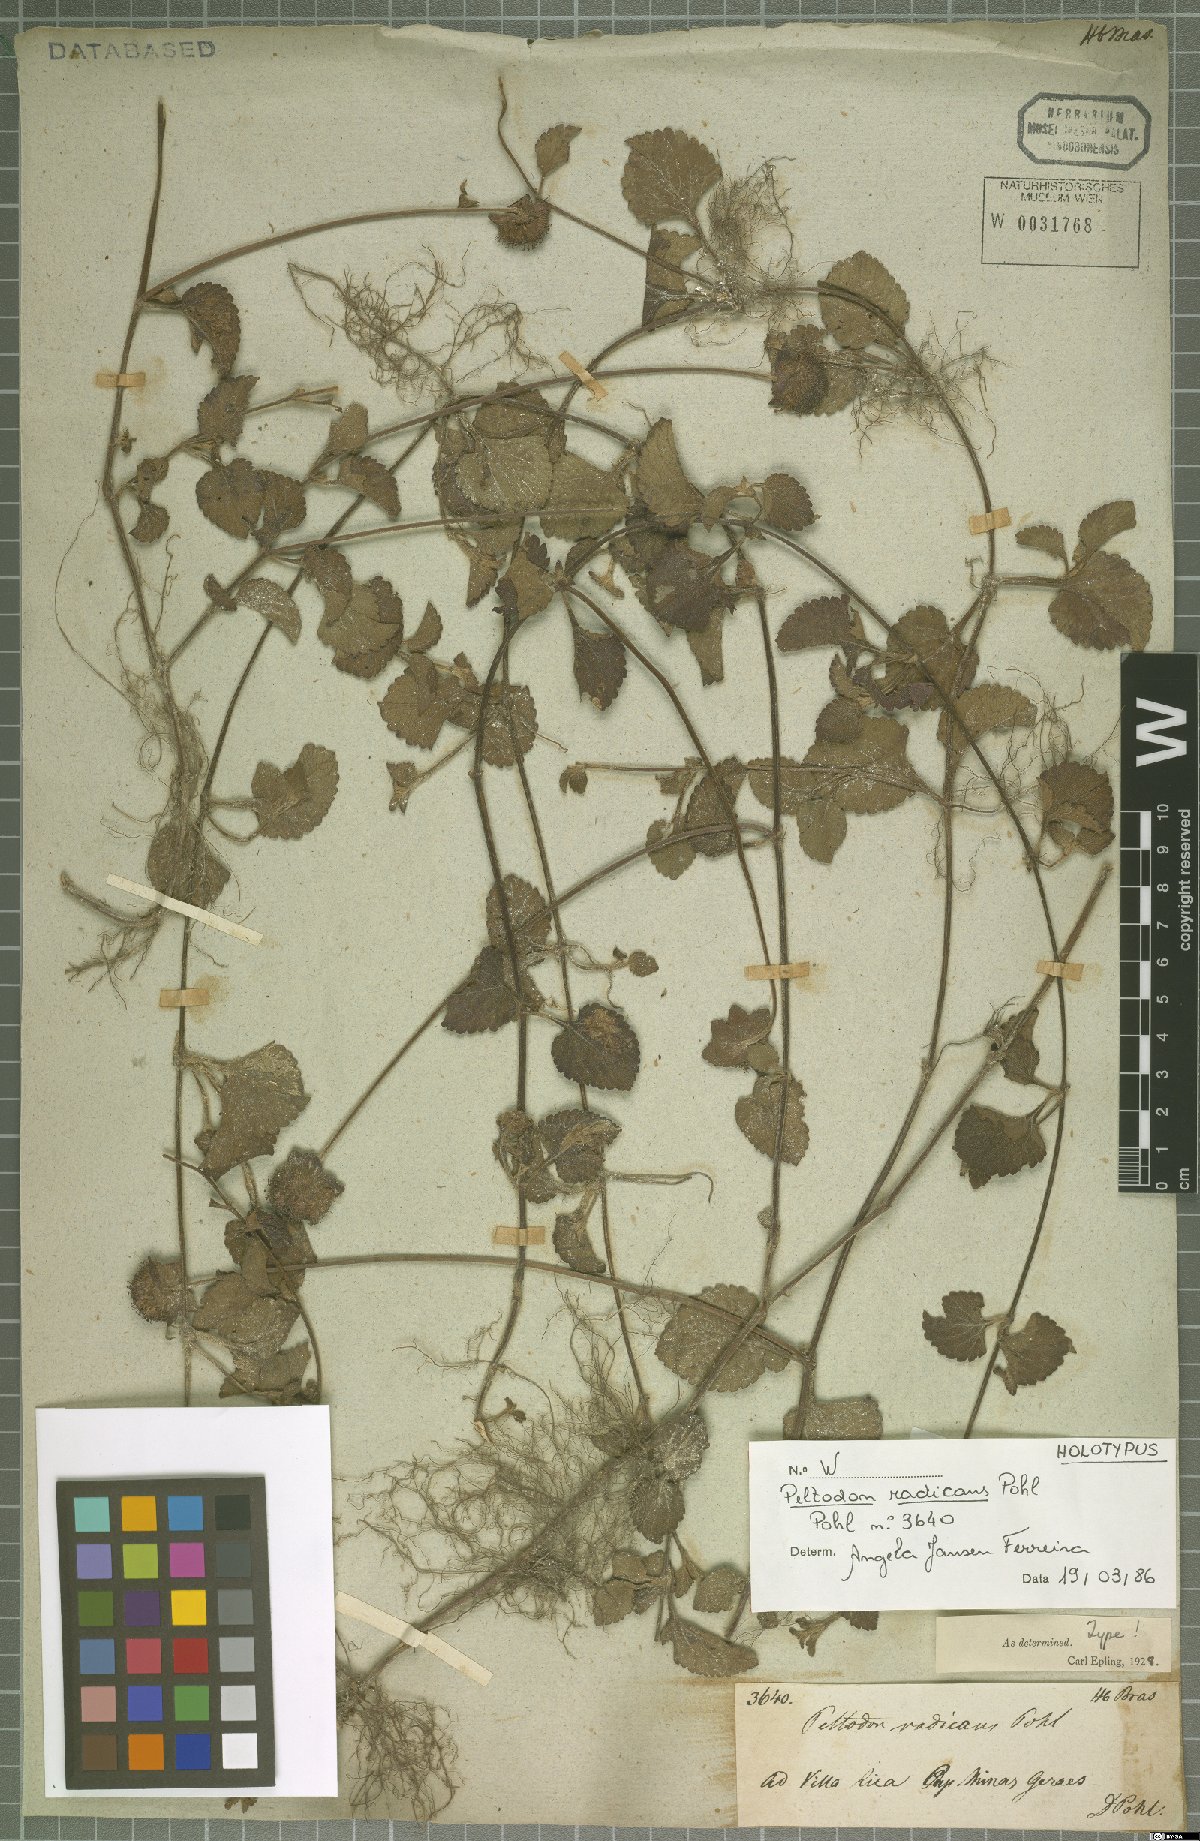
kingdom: Plantae
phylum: Tracheophyta
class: Magnoliopsida
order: Lamiales
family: Lamiaceae
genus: Hyptis
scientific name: Hyptis radicans
